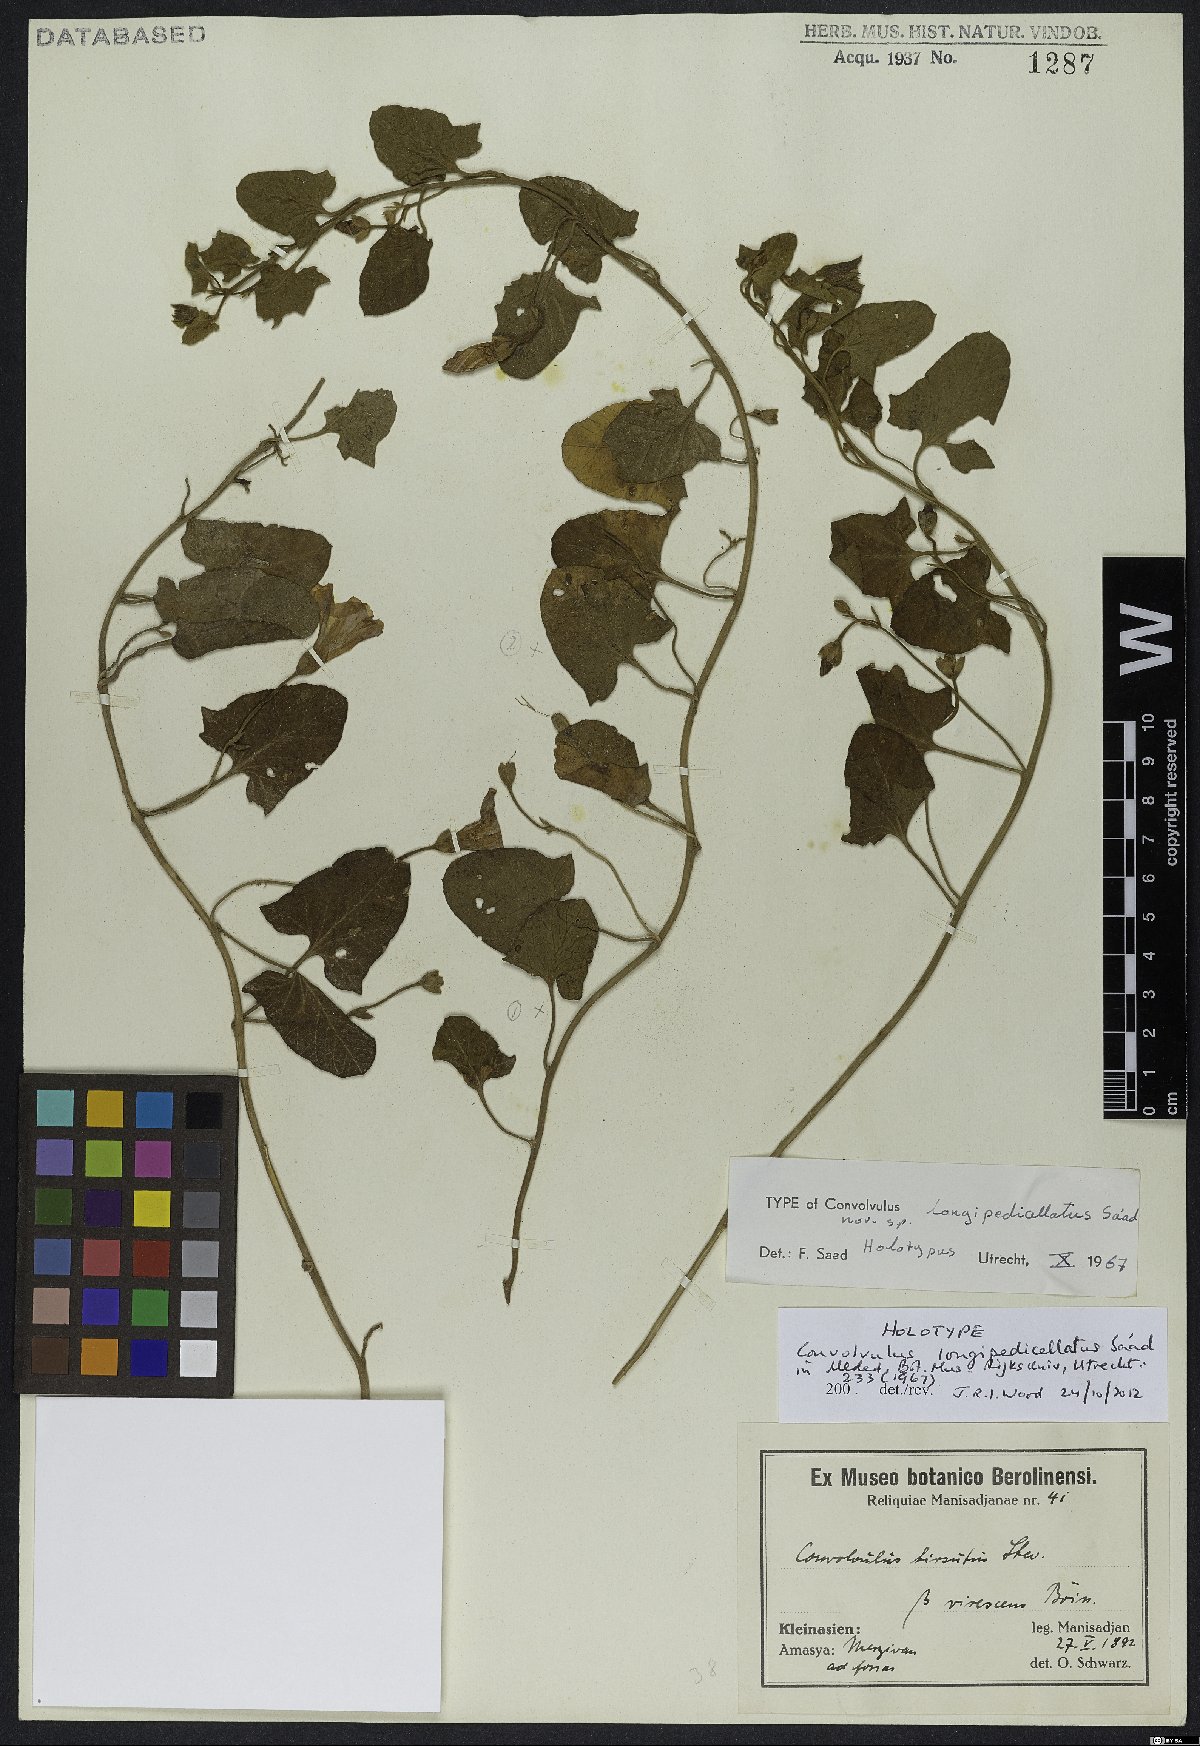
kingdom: Plantae
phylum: Tracheophyta
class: Magnoliopsida
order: Solanales
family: Convolvulaceae
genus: Convolvulus
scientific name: Convolvulus longipedicellatus
